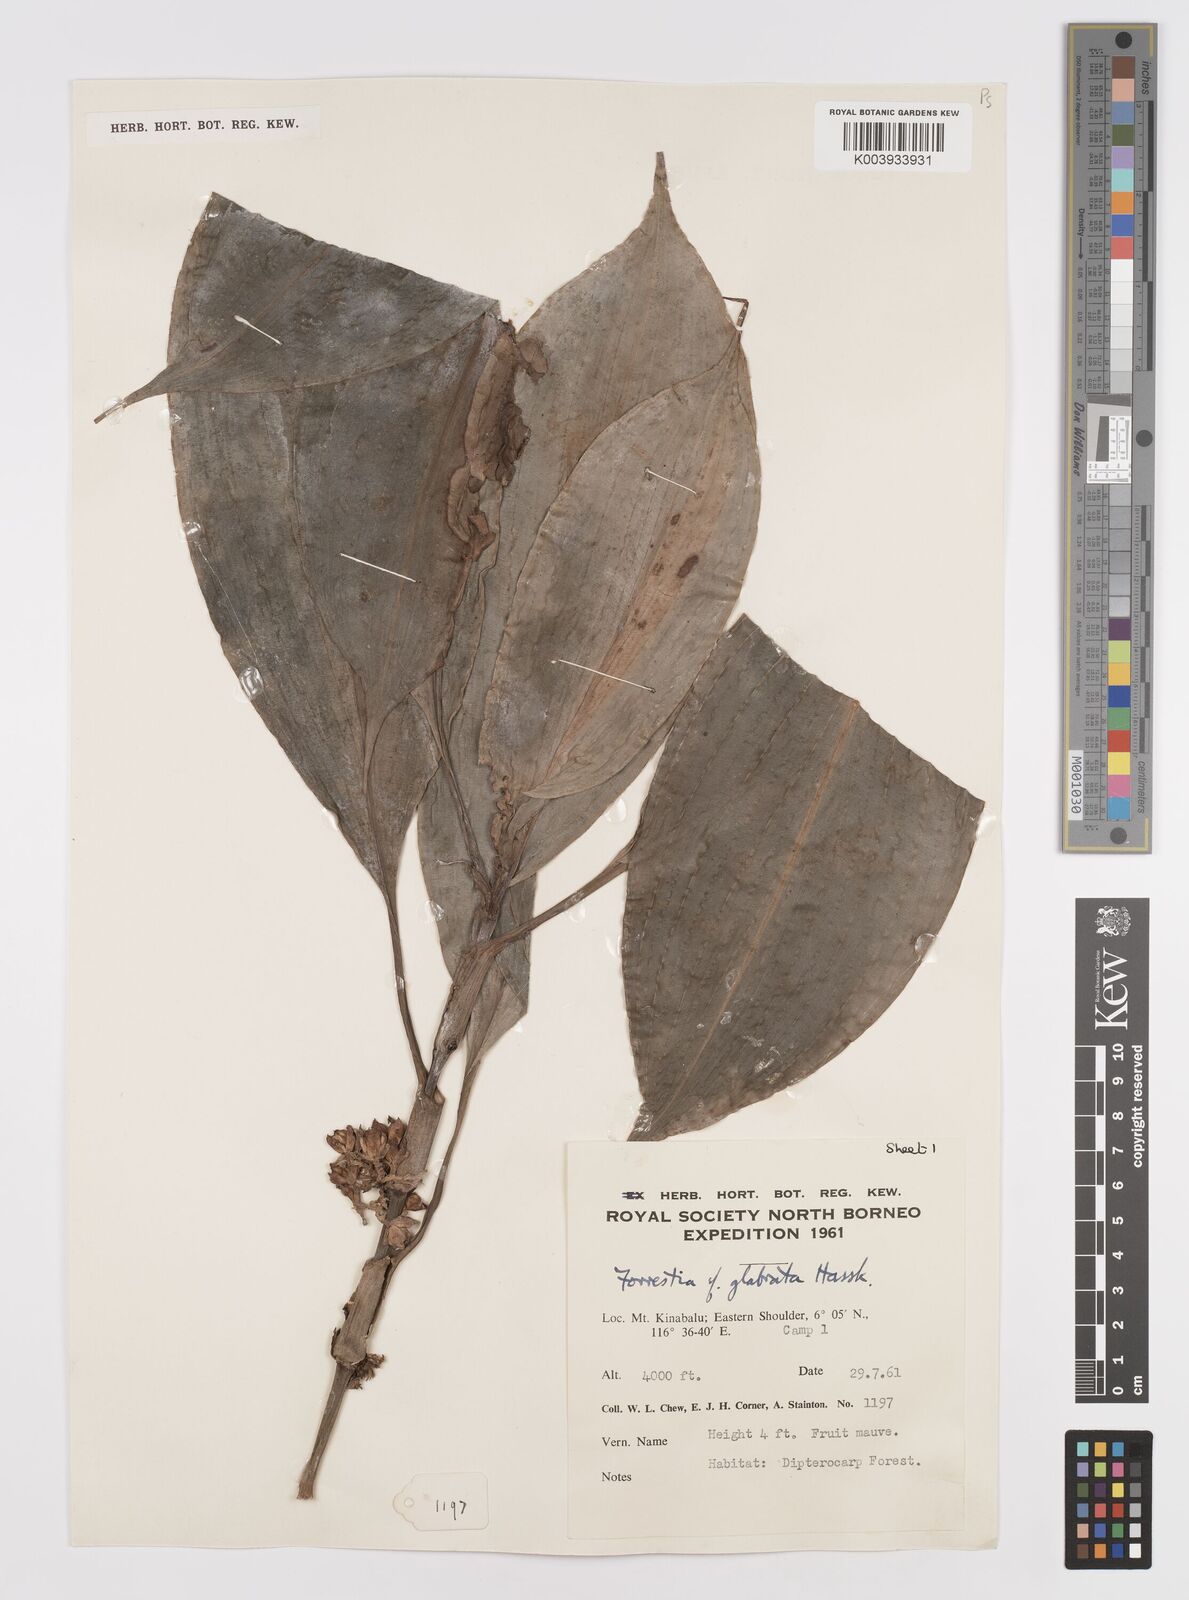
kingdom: Plantae
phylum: Tracheophyta
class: Liliopsida
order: Commelinales
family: Commelinaceae
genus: Amischotolype
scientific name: Amischotolype glabrata
